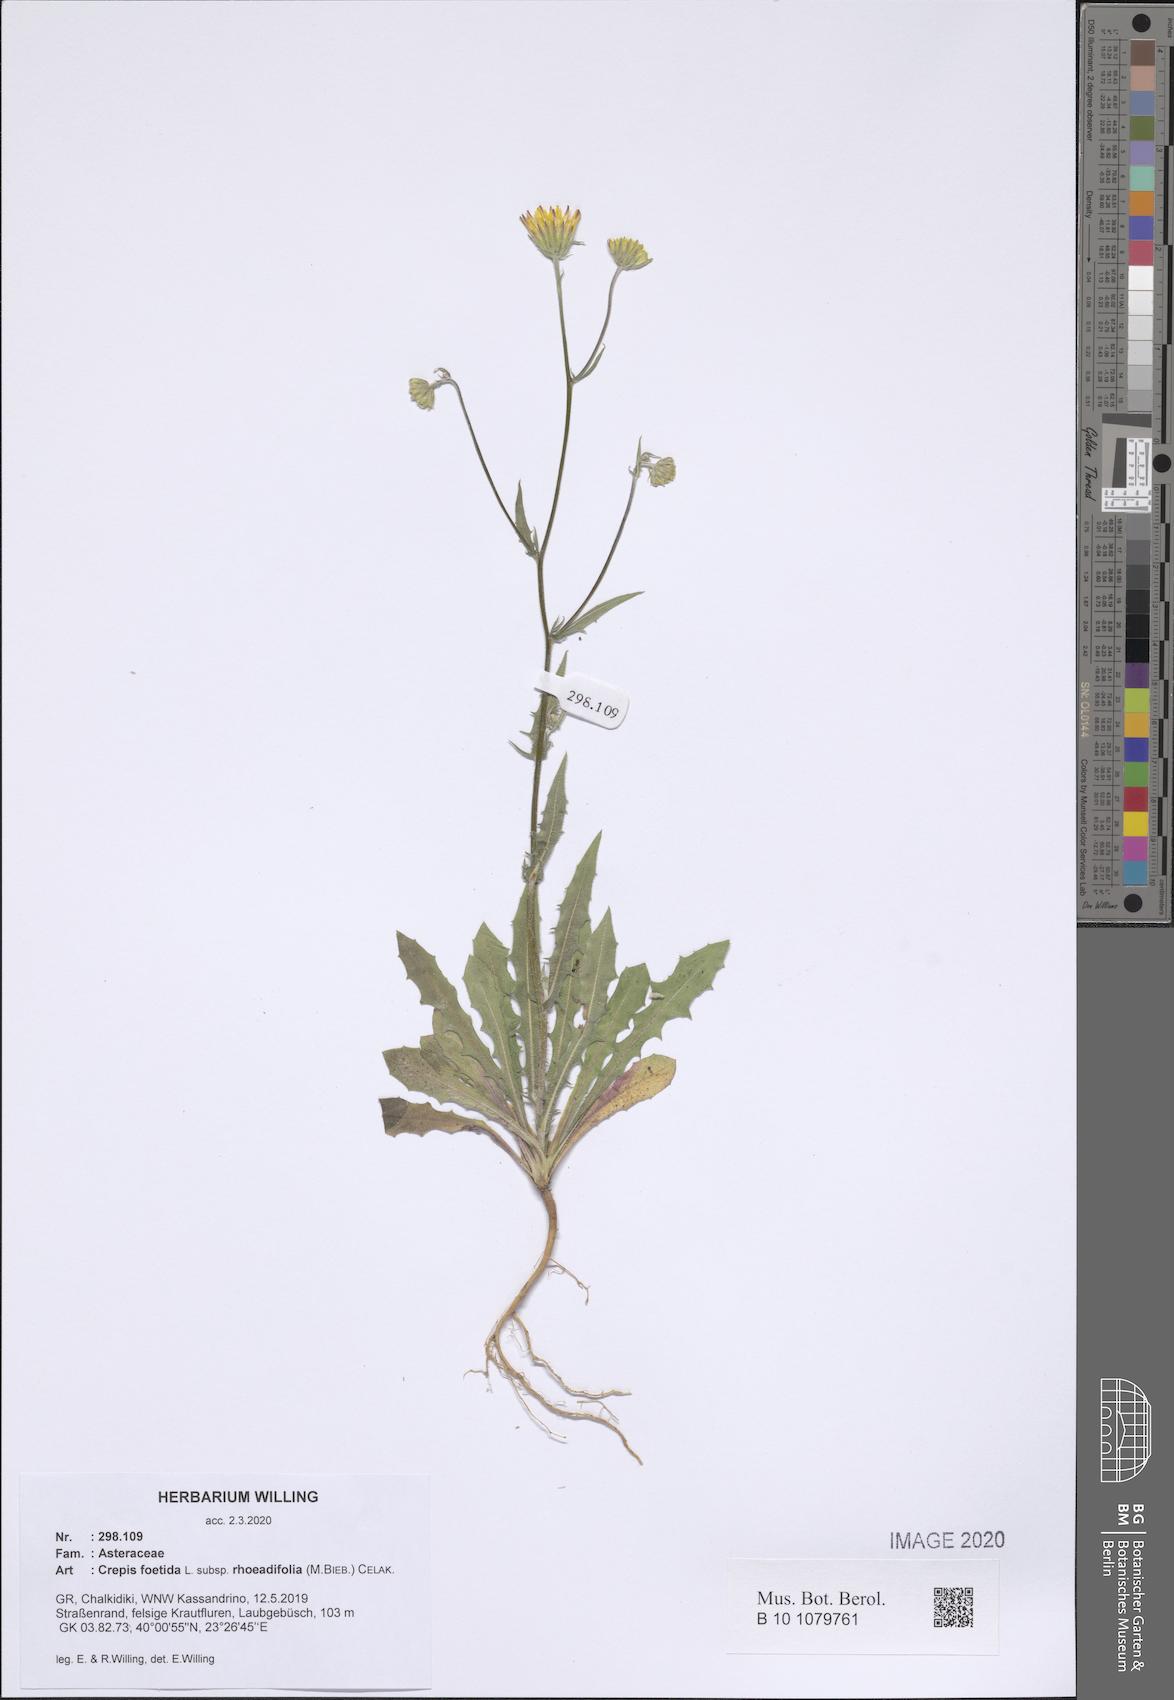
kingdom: Plantae
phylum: Tracheophyta
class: Magnoliopsida
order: Asterales
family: Asteraceae
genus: Crepis
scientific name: Crepis foetida
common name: Stinking hawk's-beard
